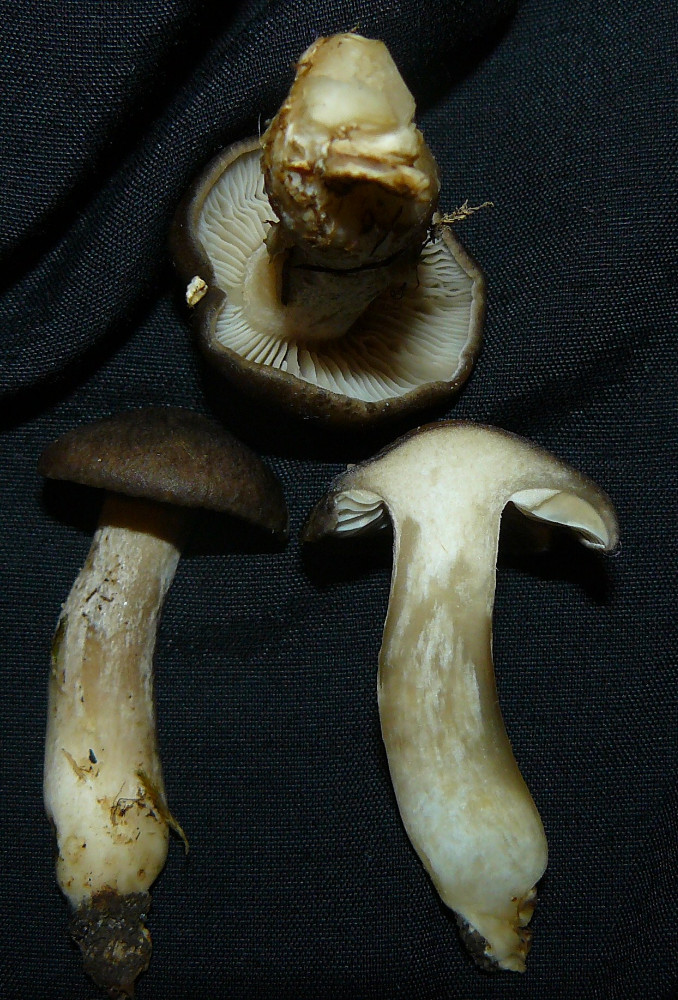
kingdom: Fungi
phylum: Basidiomycota
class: Agaricomycetes
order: Agaricales
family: Lyophyllaceae
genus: Lyophyllum
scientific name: Lyophyllum decastes
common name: røggrå gråblad
